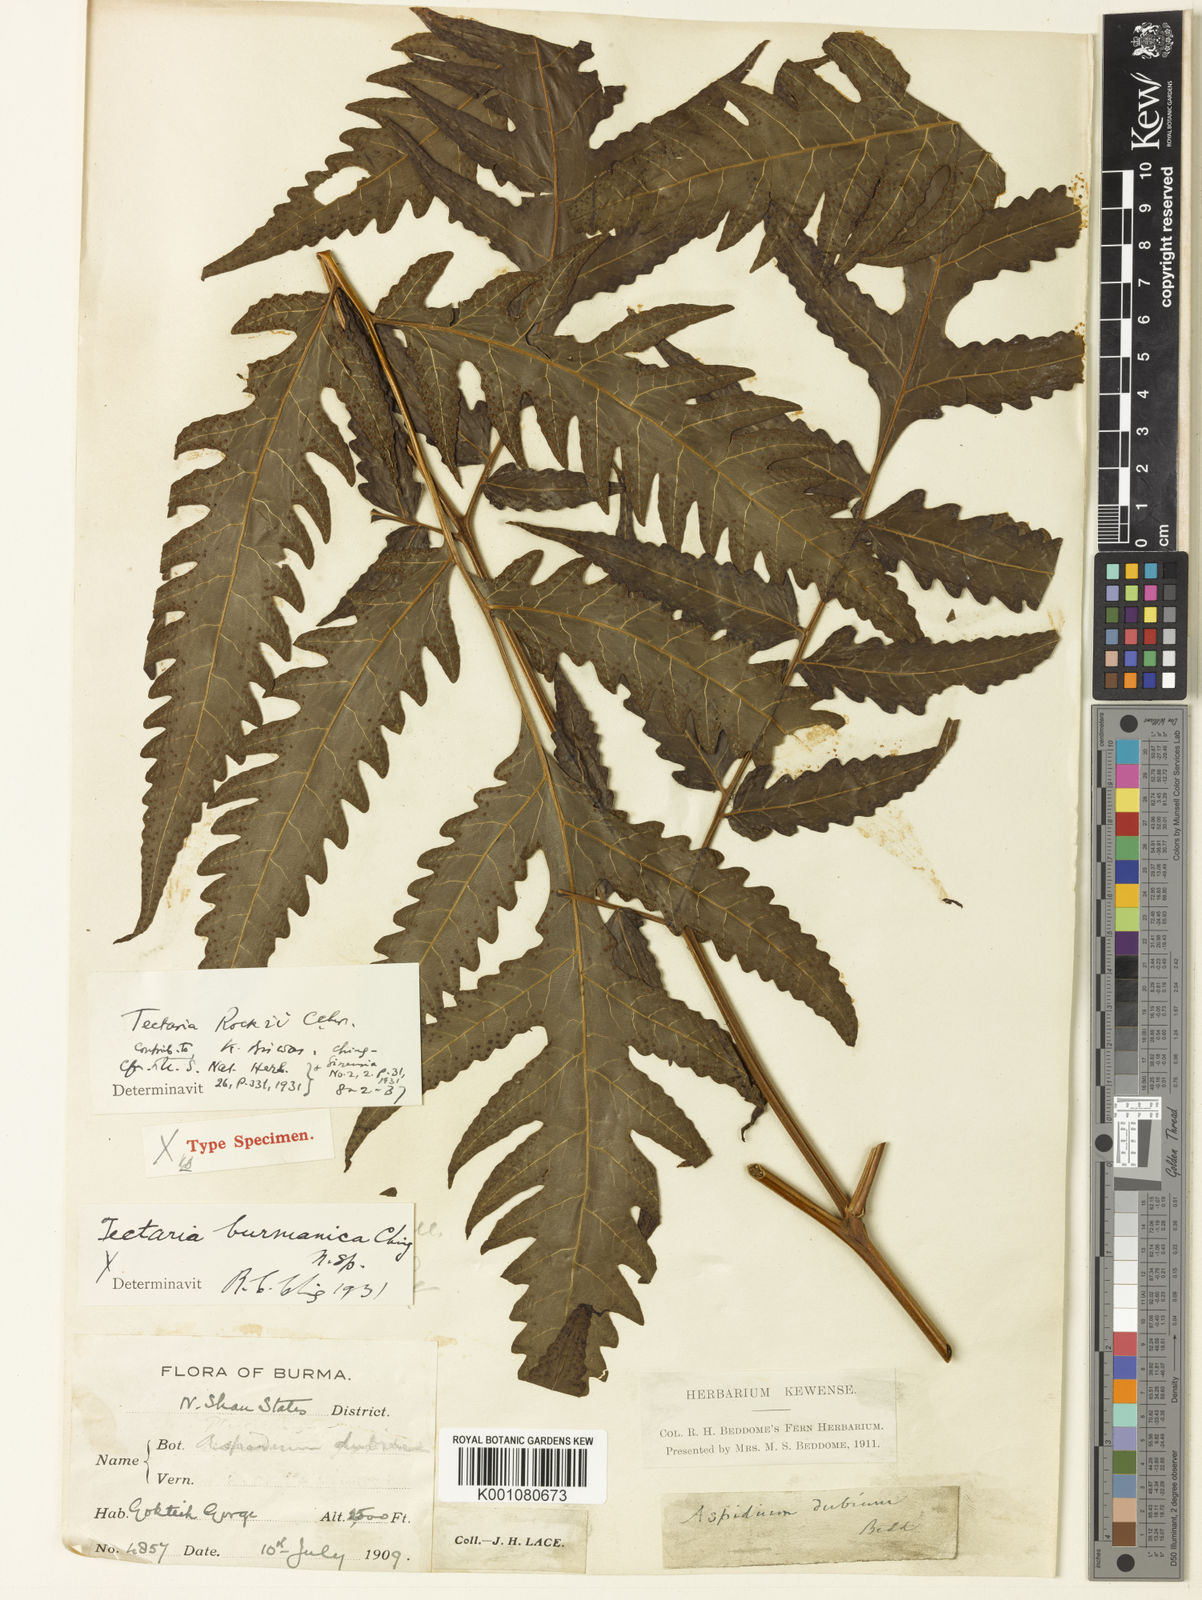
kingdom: Plantae
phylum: Tracheophyta
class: Polypodiopsida
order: Polypodiales
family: Tectariaceae
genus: Tectaria
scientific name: Tectaria rockii
